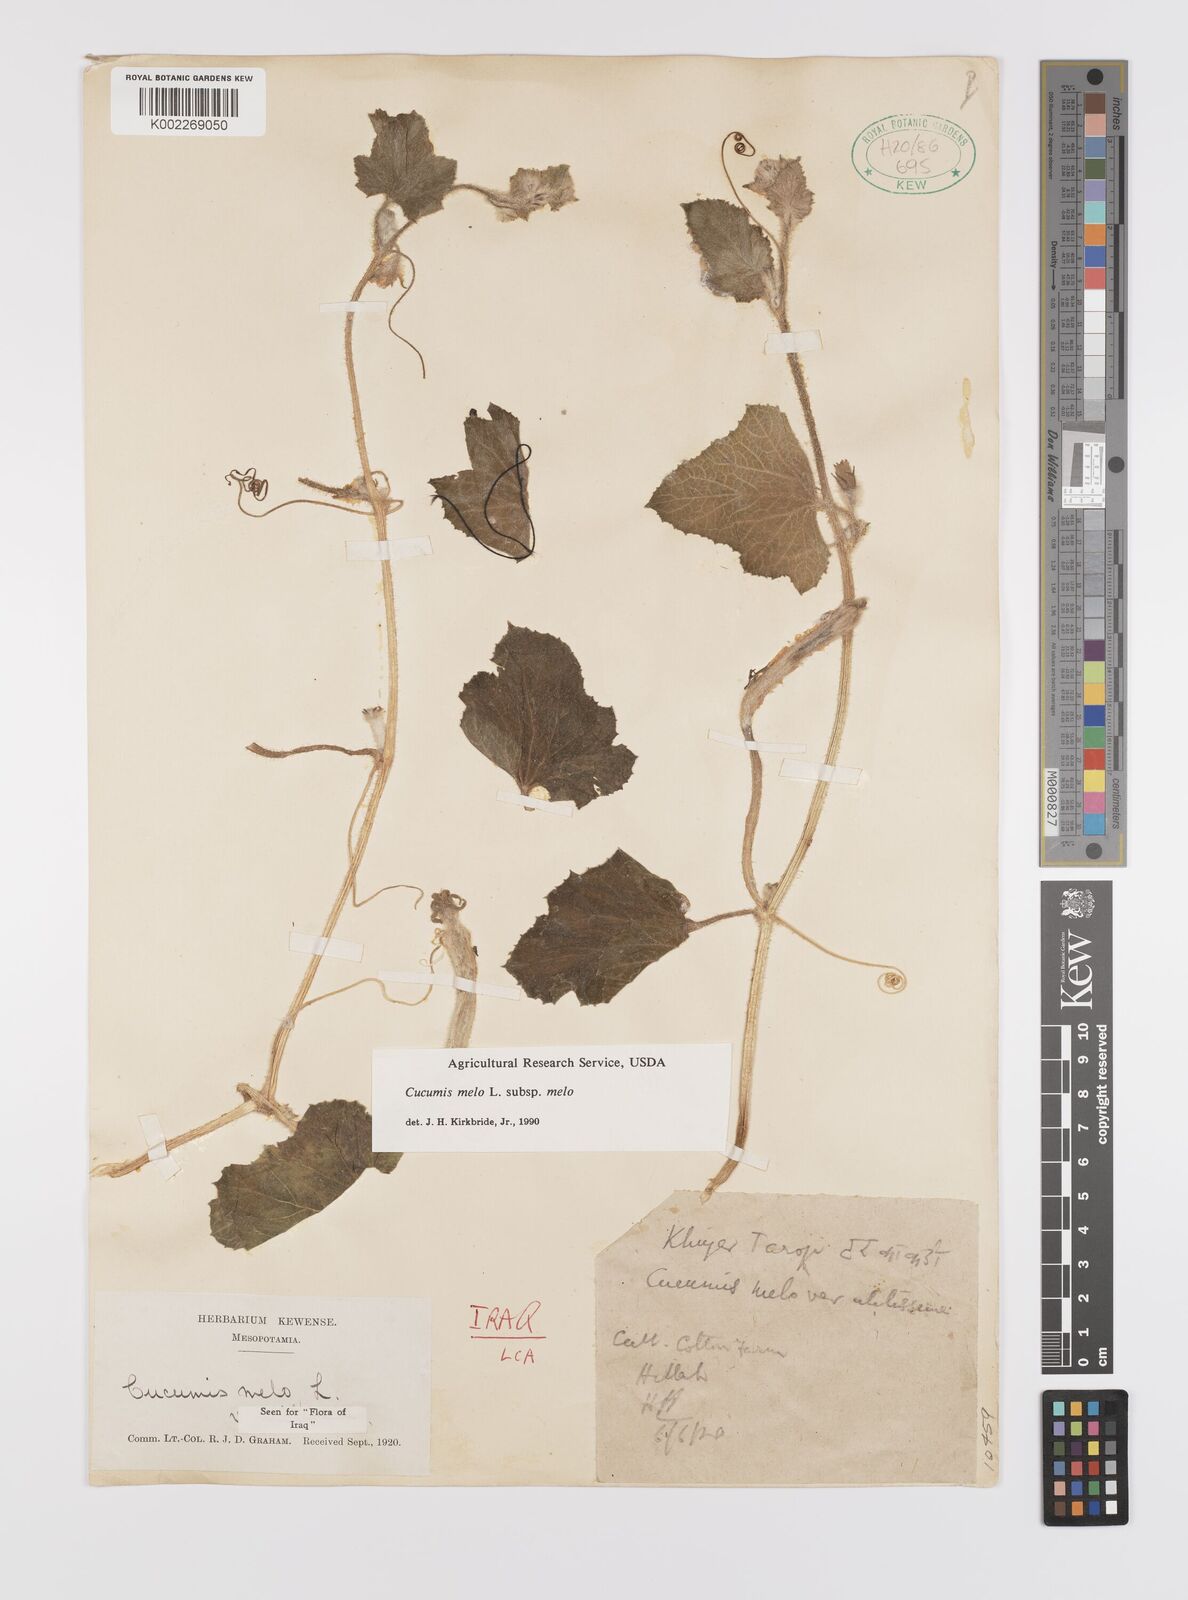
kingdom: Plantae
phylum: Tracheophyta
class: Magnoliopsida
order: Cucurbitales
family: Cucurbitaceae
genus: Cucumis
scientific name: Cucumis melo
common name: Melon
